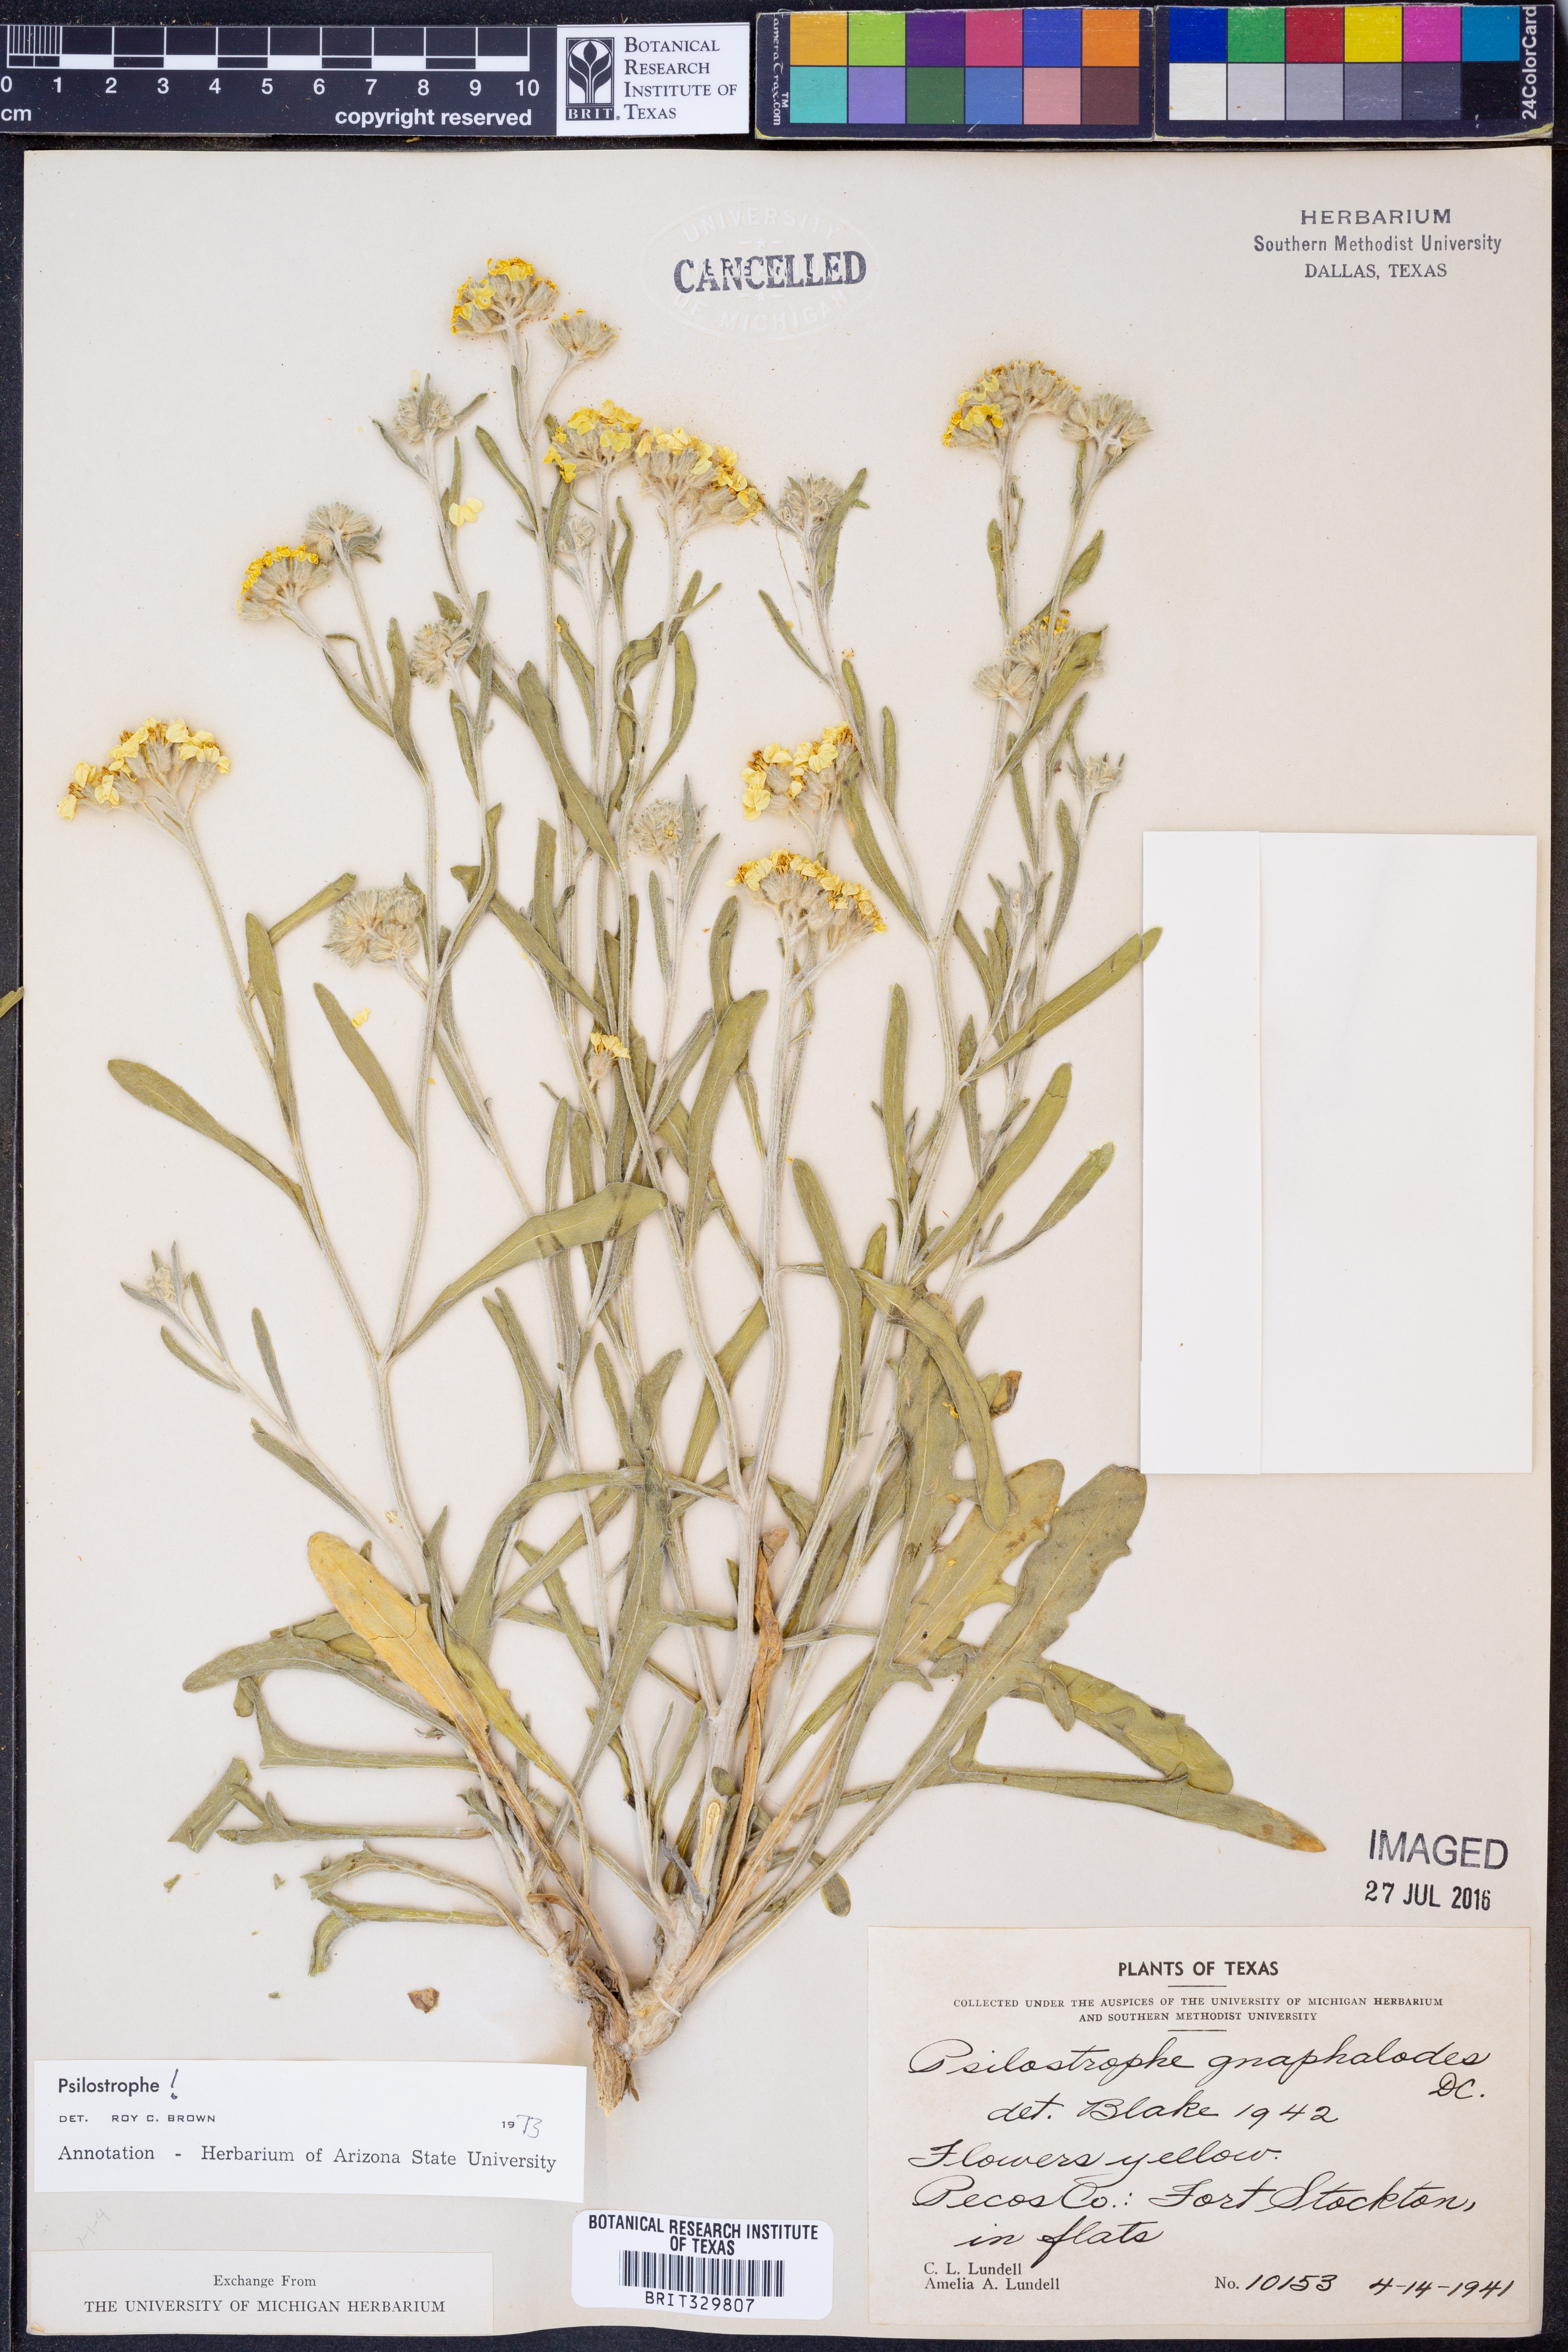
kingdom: Plantae
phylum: Tracheophyta
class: Magnoliopsida
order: Asterales
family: Asteraceae
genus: Psilostrophe
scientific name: Psilostrophe gnaphalioides
